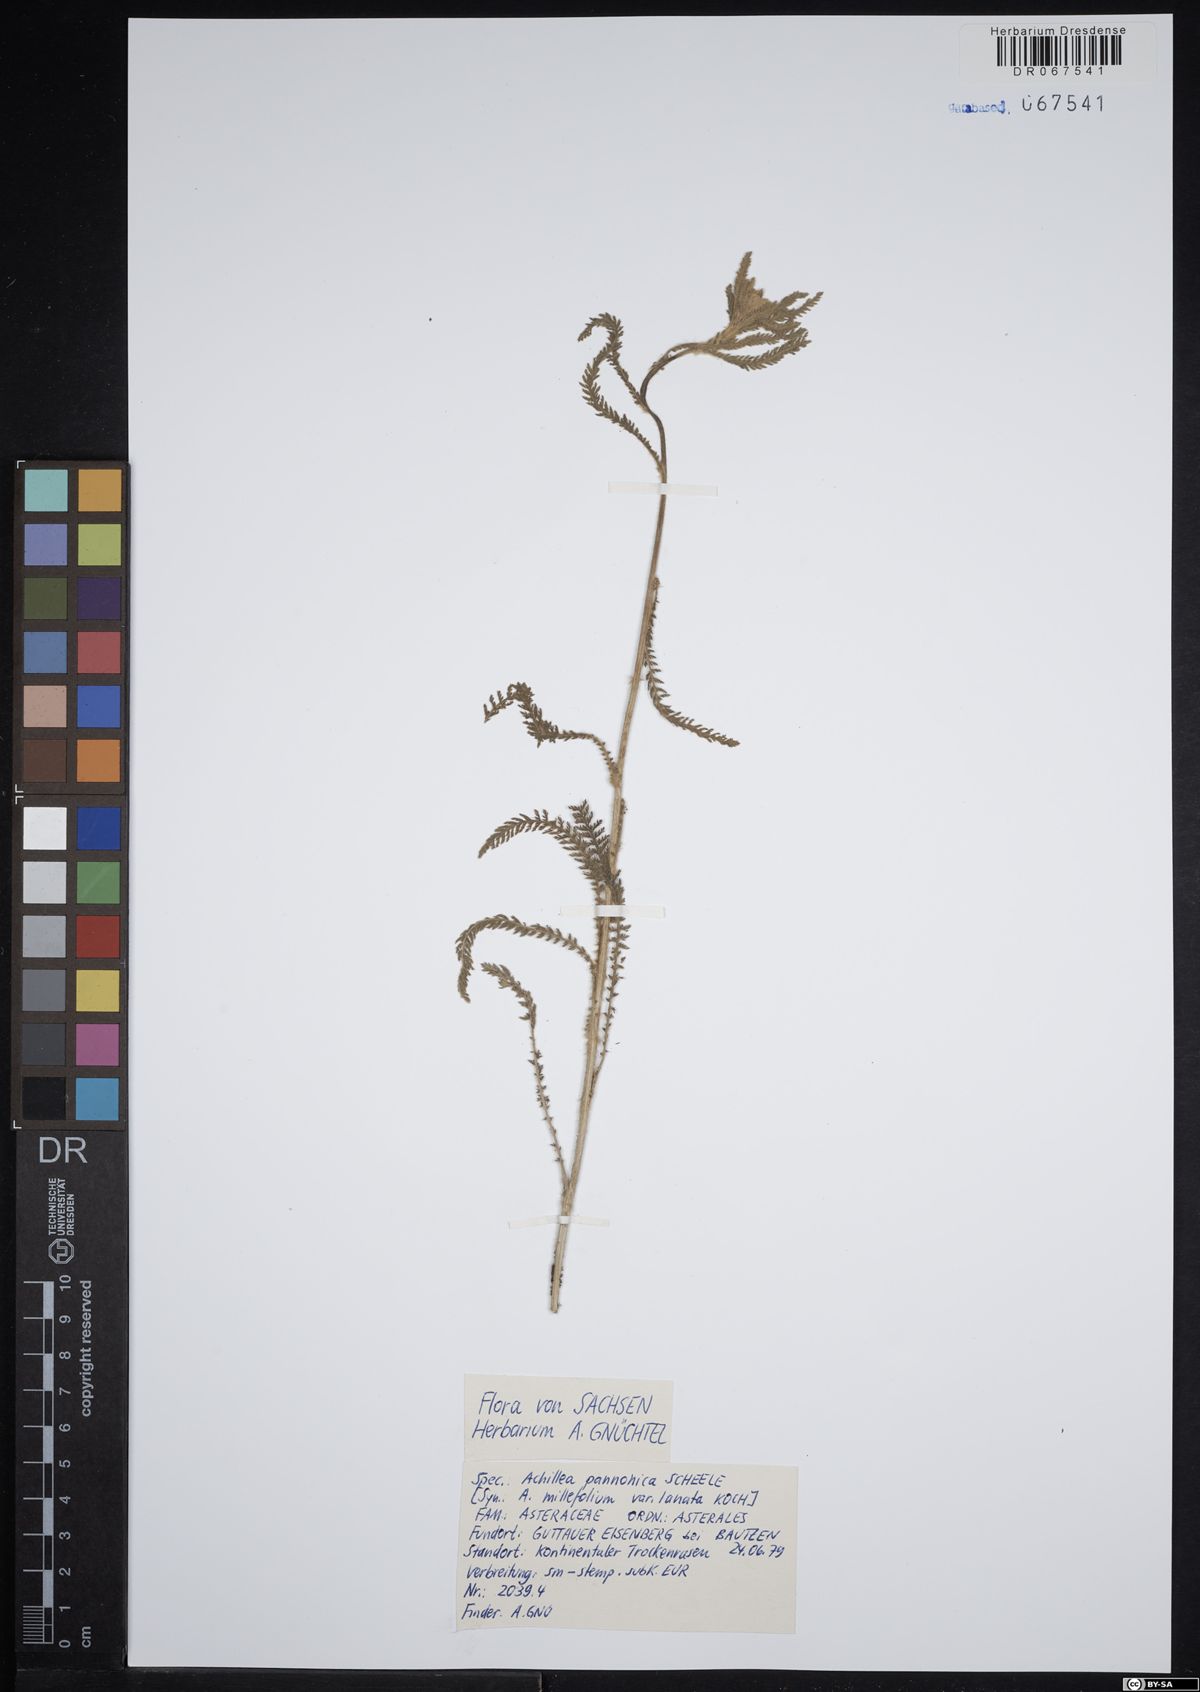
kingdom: Plantae
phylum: Tracheophyta
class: Magnoliopsida
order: Asterales
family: Asteraceae
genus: Achillea
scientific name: Achillea pannonica
